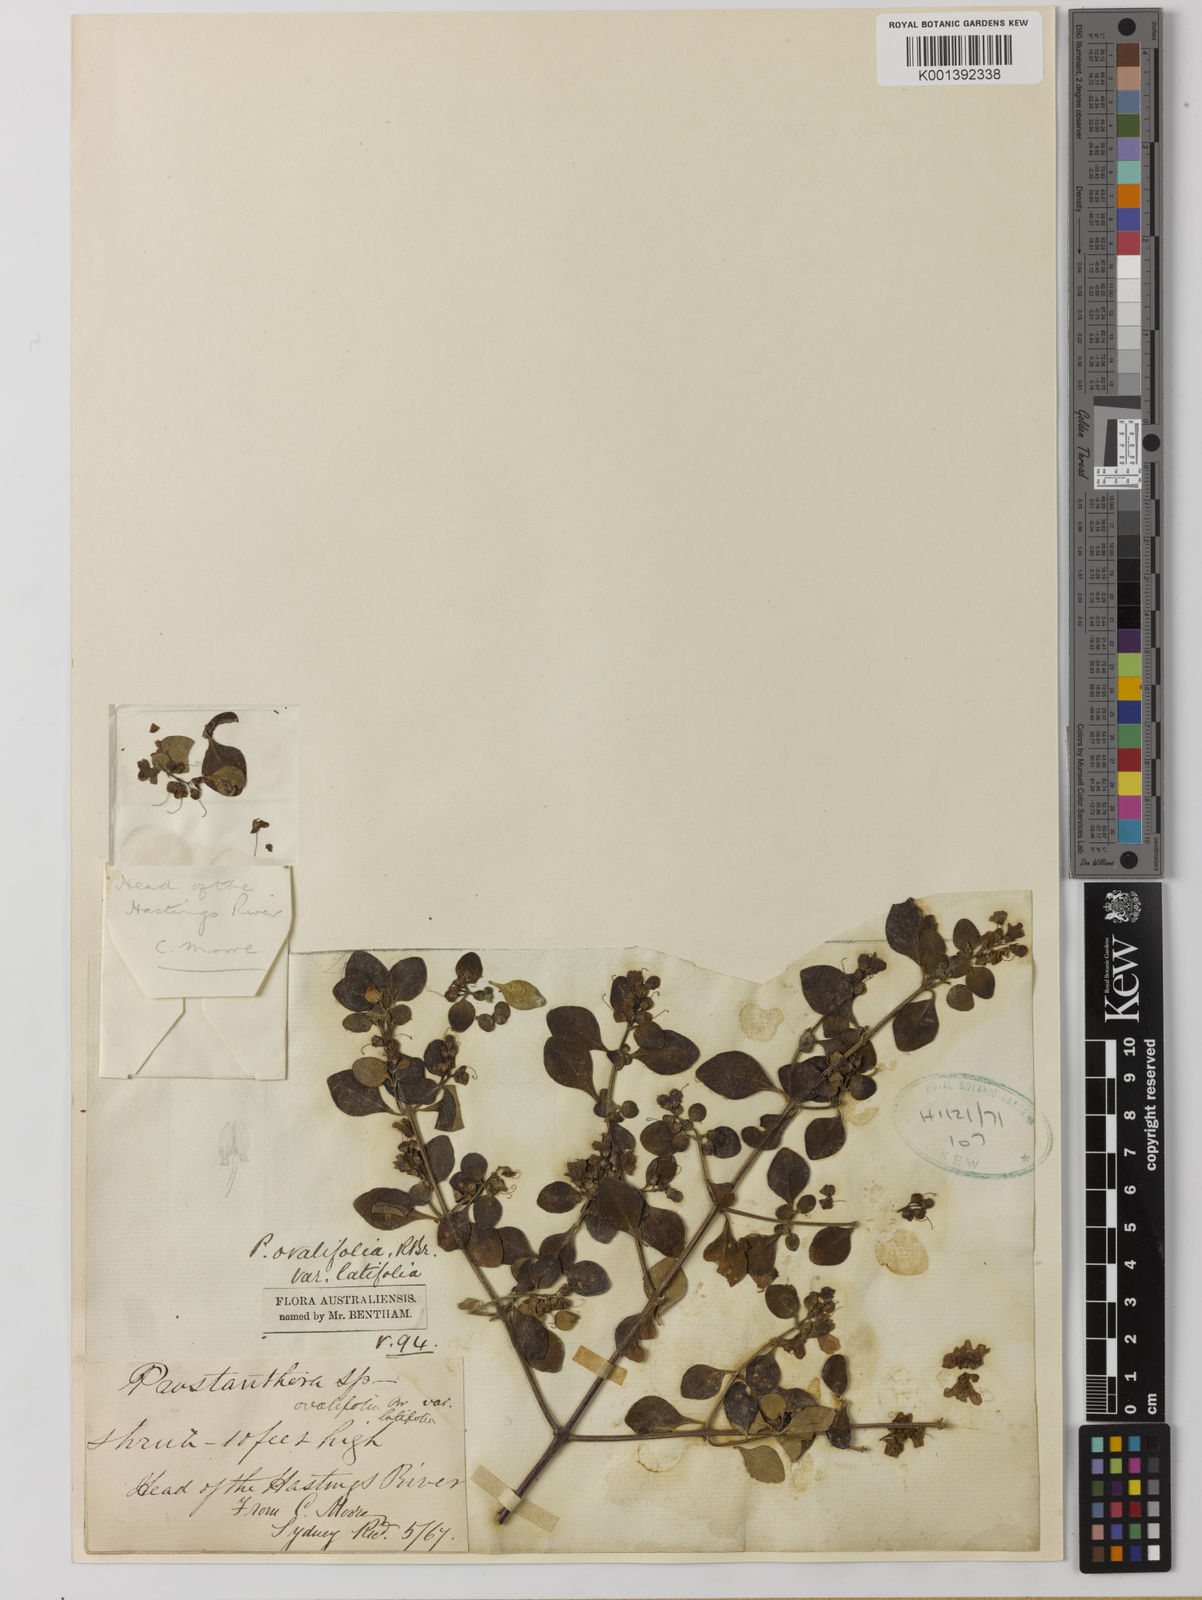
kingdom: Plantae
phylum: Tracheophyta
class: Magnoliopsida
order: Lamiales
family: Lamiaceae
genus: Prostanthera
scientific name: Prostanthera ovalifolia
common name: Purple mintbush
